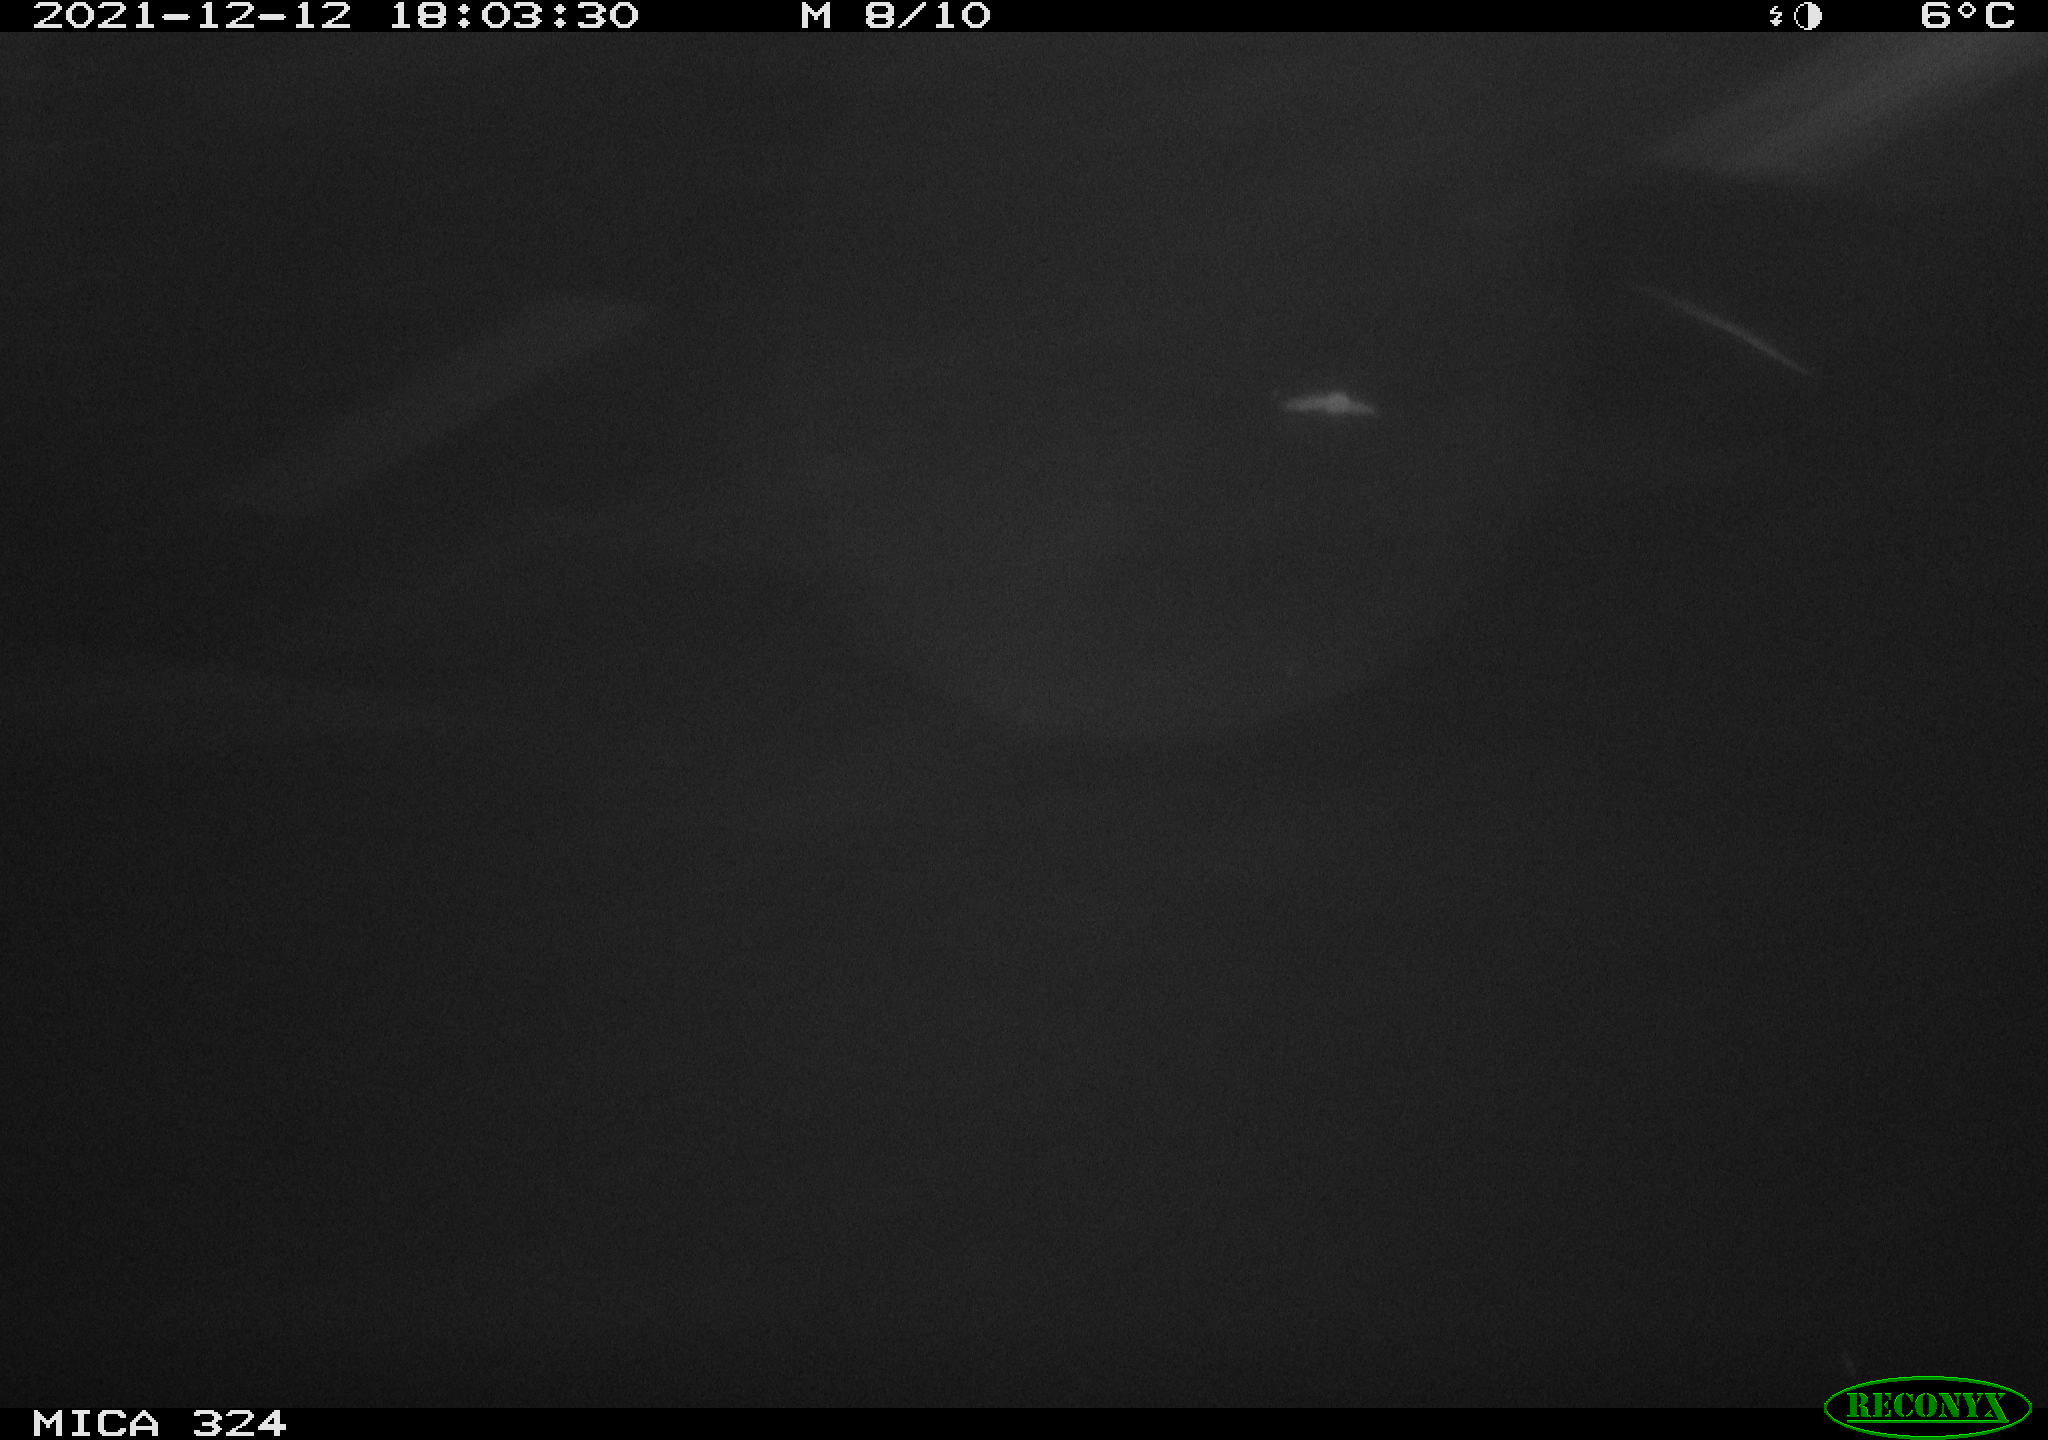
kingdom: Animalia
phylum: Chordata
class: Mammalia
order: Rodentia
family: Cricetidae
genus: Ondatra
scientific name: Ondatra zibethicus
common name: Muskrat
